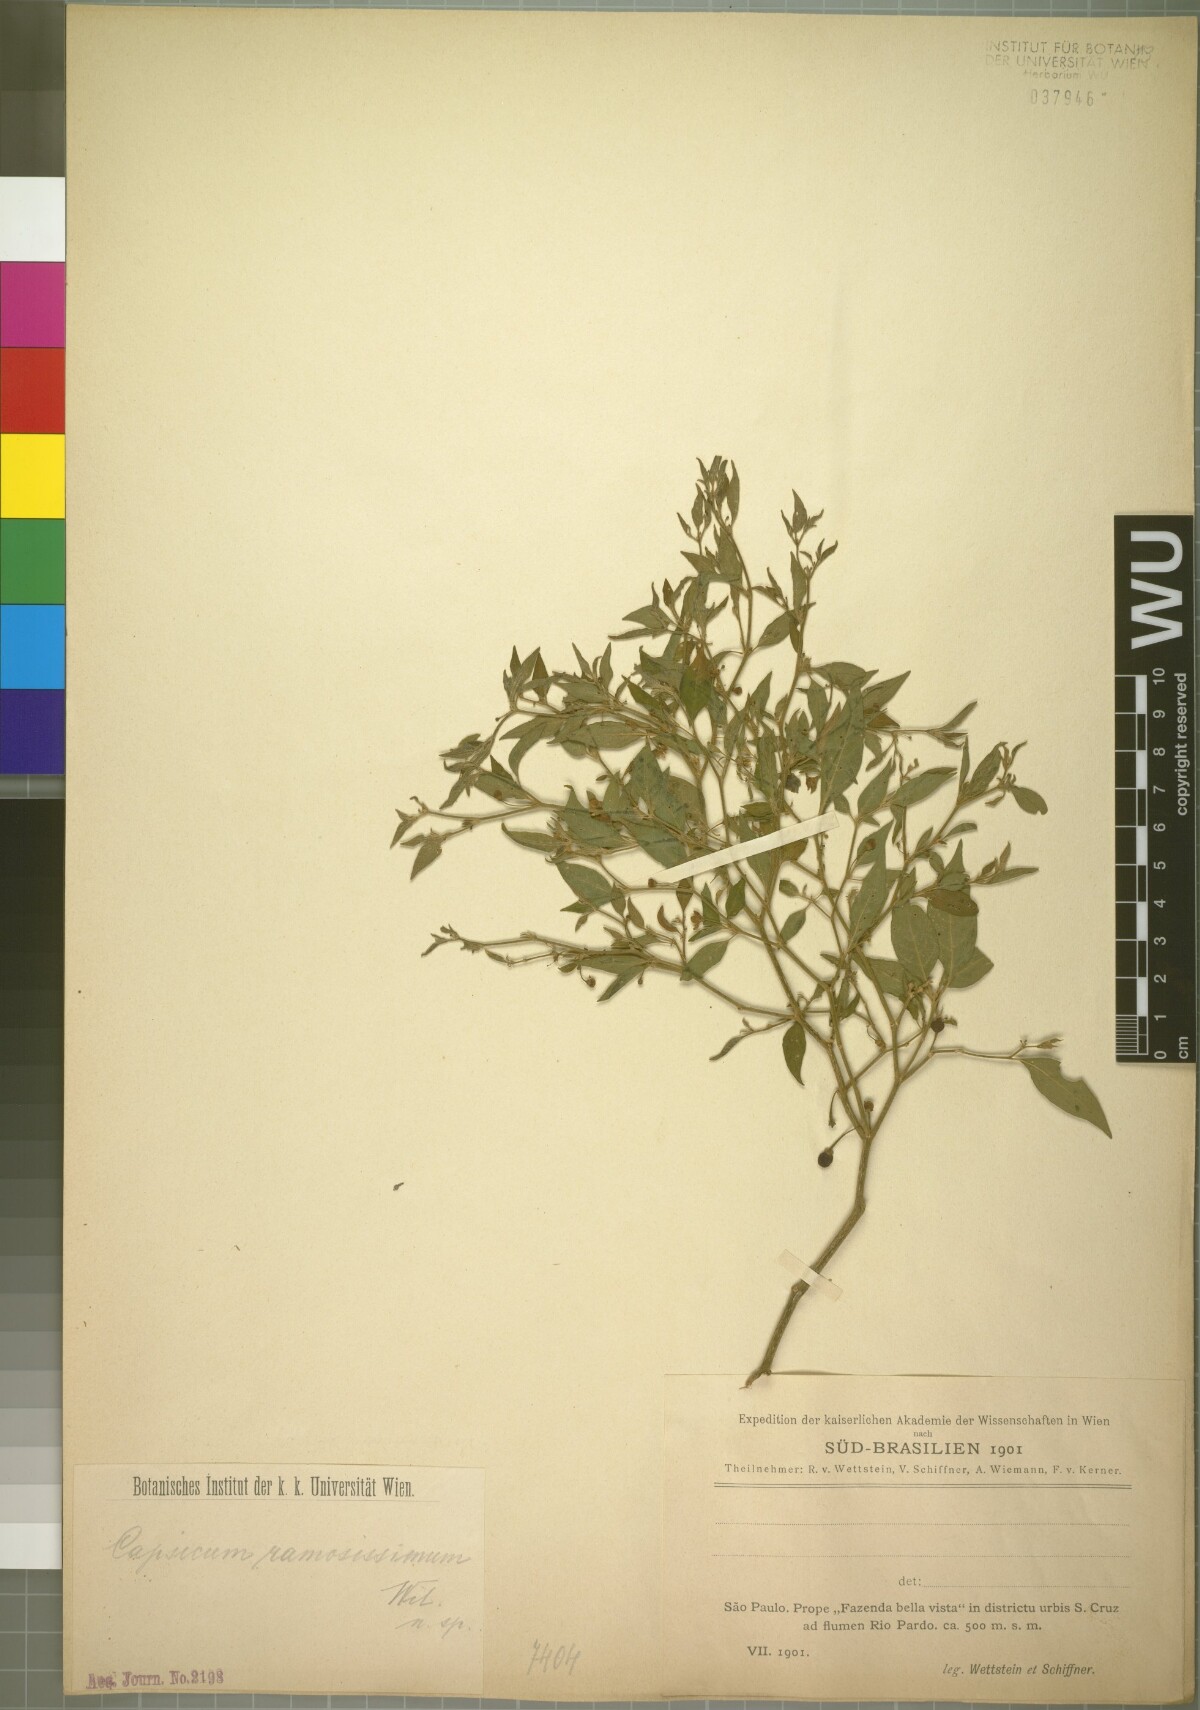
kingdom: Plantae
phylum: Tracheophyta
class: Magnoliopsida
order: Solanales
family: Solanaceae
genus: Capsicum
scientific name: Capsicum flexuosum
